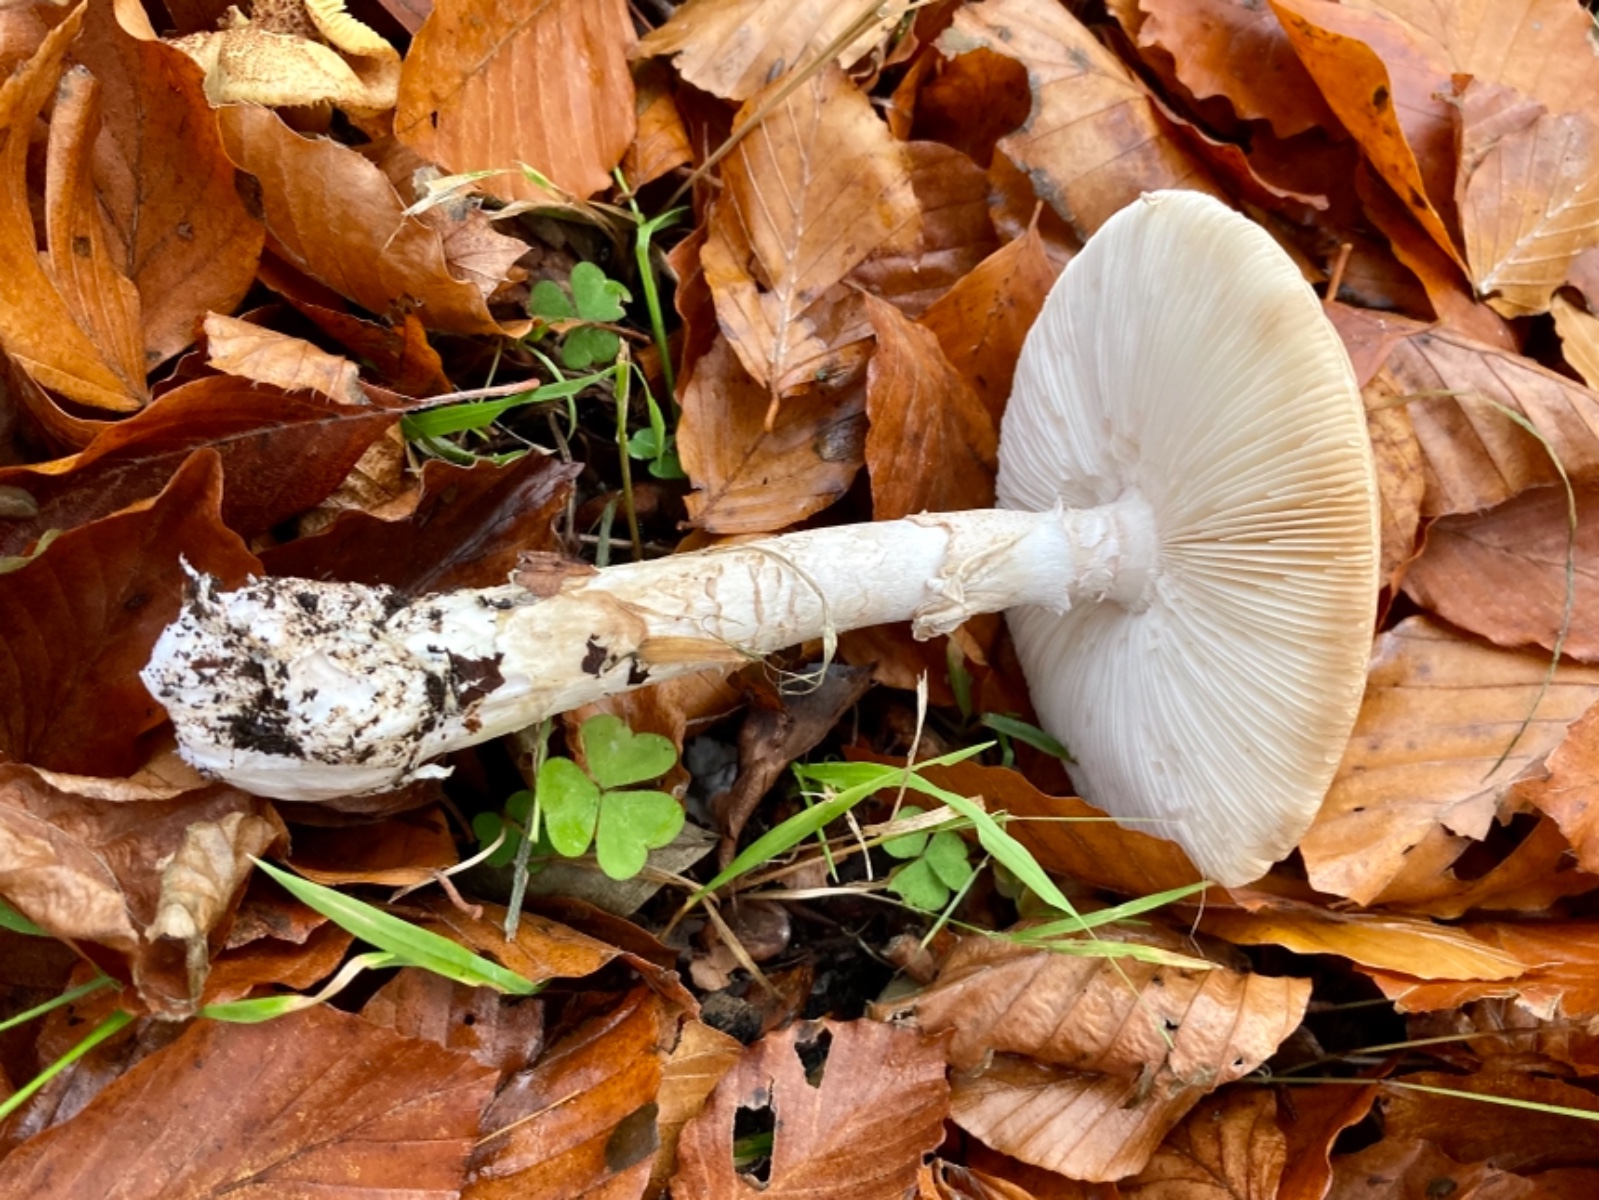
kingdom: Fungi
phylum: Basidiomycota
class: Agaricomycetes
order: Agaricales
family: Amanitaceae
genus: Amanita
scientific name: Amanita phalloides
